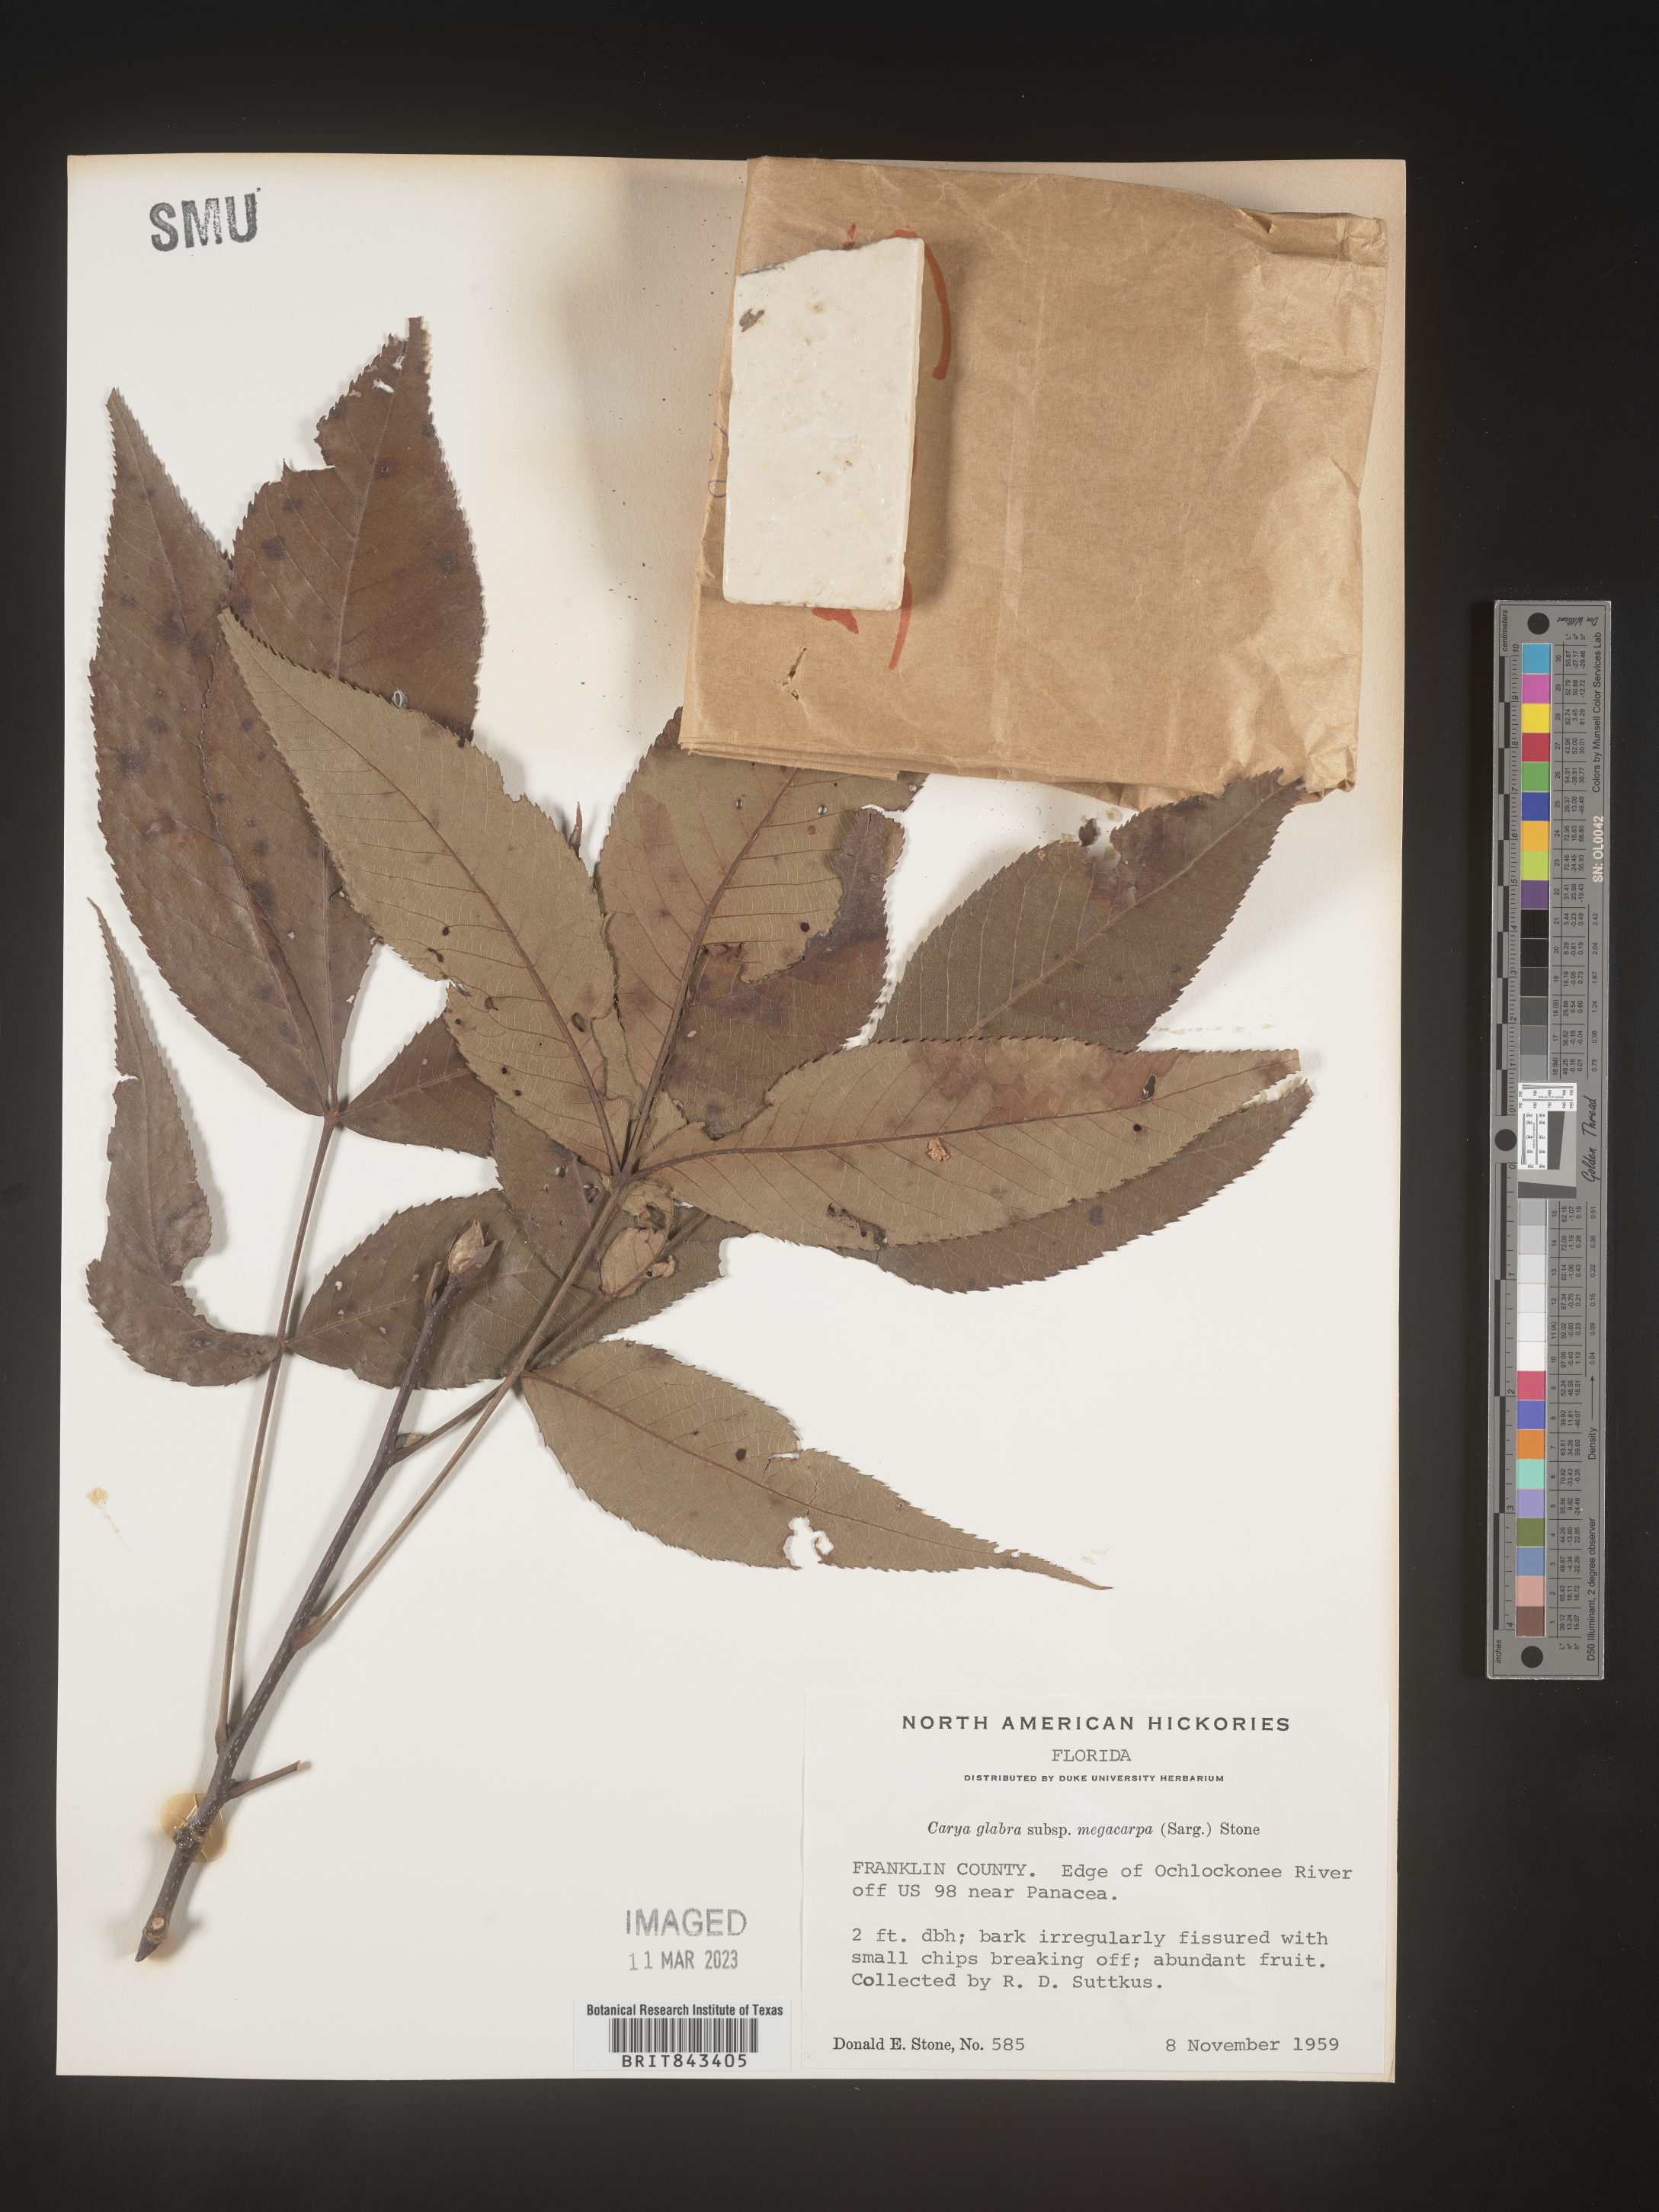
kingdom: Plantae
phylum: Tracheophyta
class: Magnoliopsida
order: Fagales
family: Juglandaceae
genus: Carya
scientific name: Carya glabra
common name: Pignut hickory
